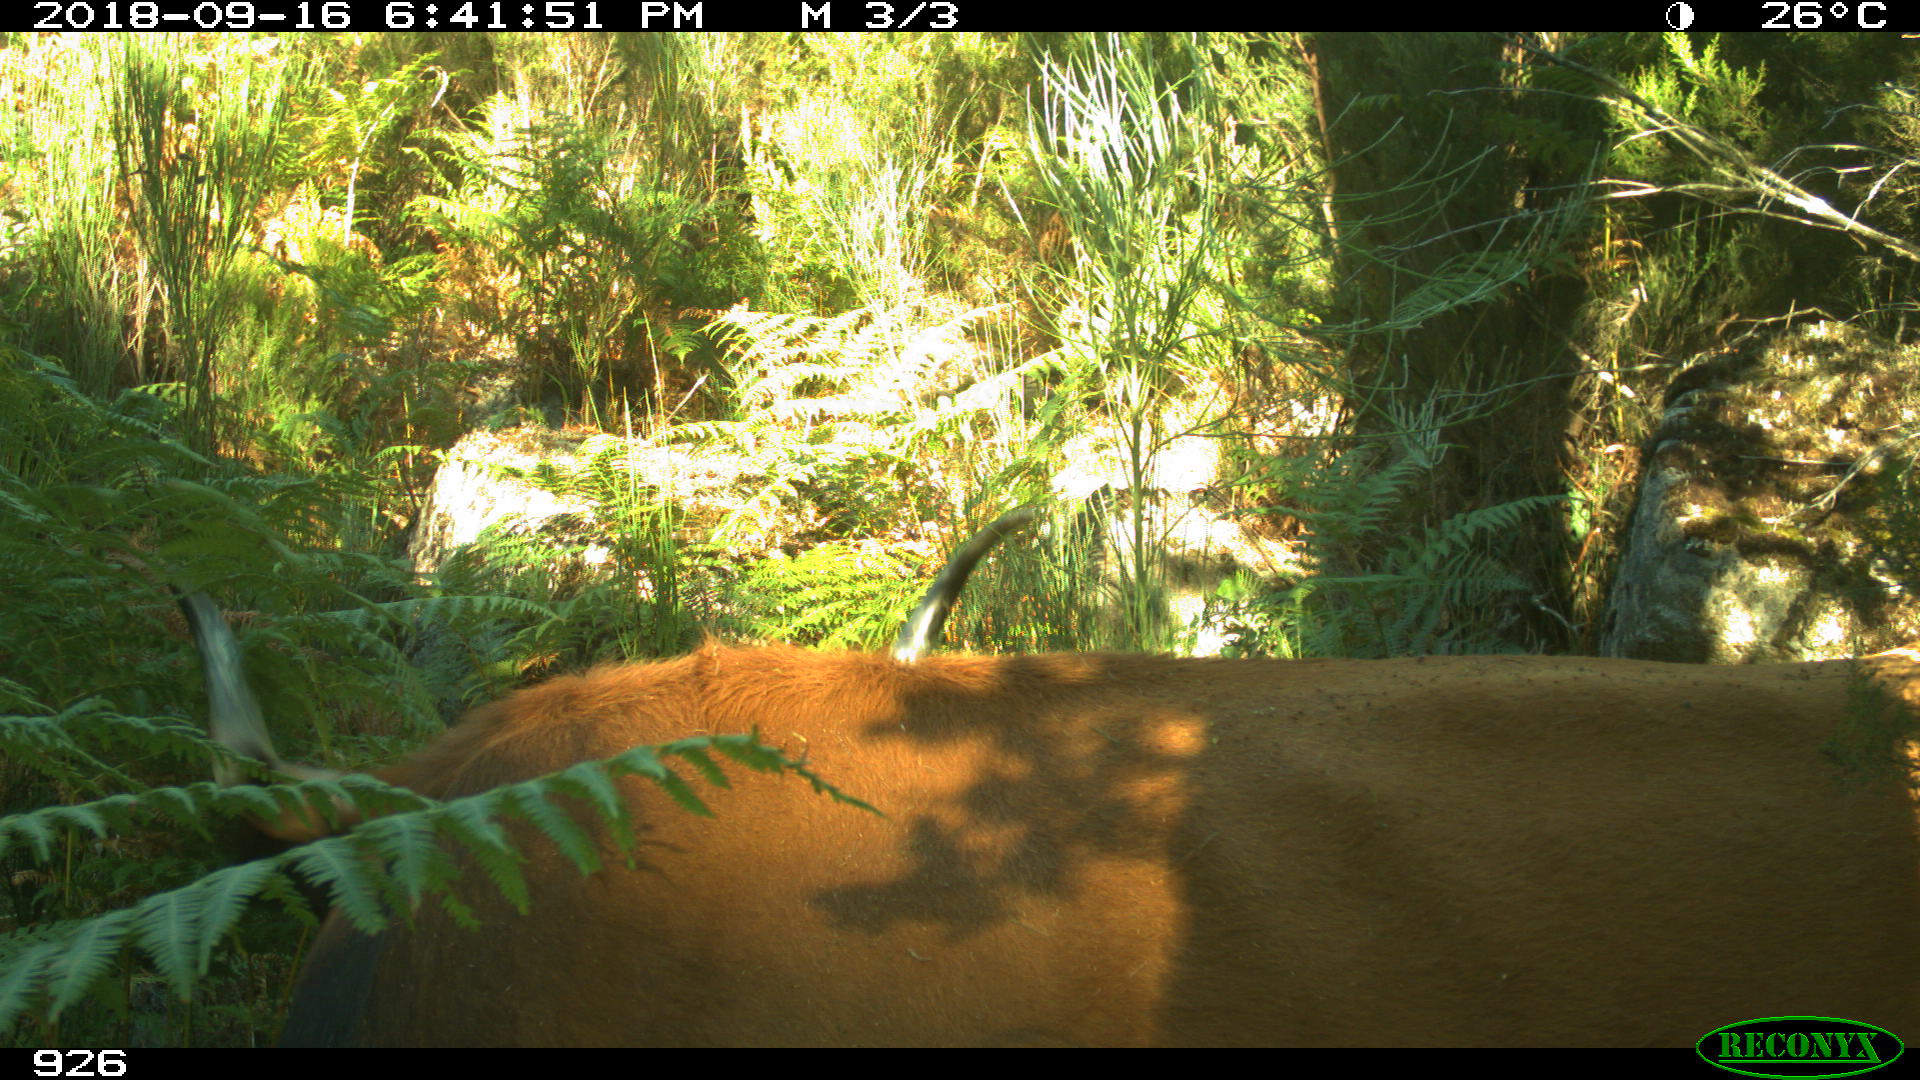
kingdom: Animalia
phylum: Chordata
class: Mammalia
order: Artiodactyla
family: Bovidae
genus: Bos
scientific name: Bos taurus
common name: Domesticated cattle
